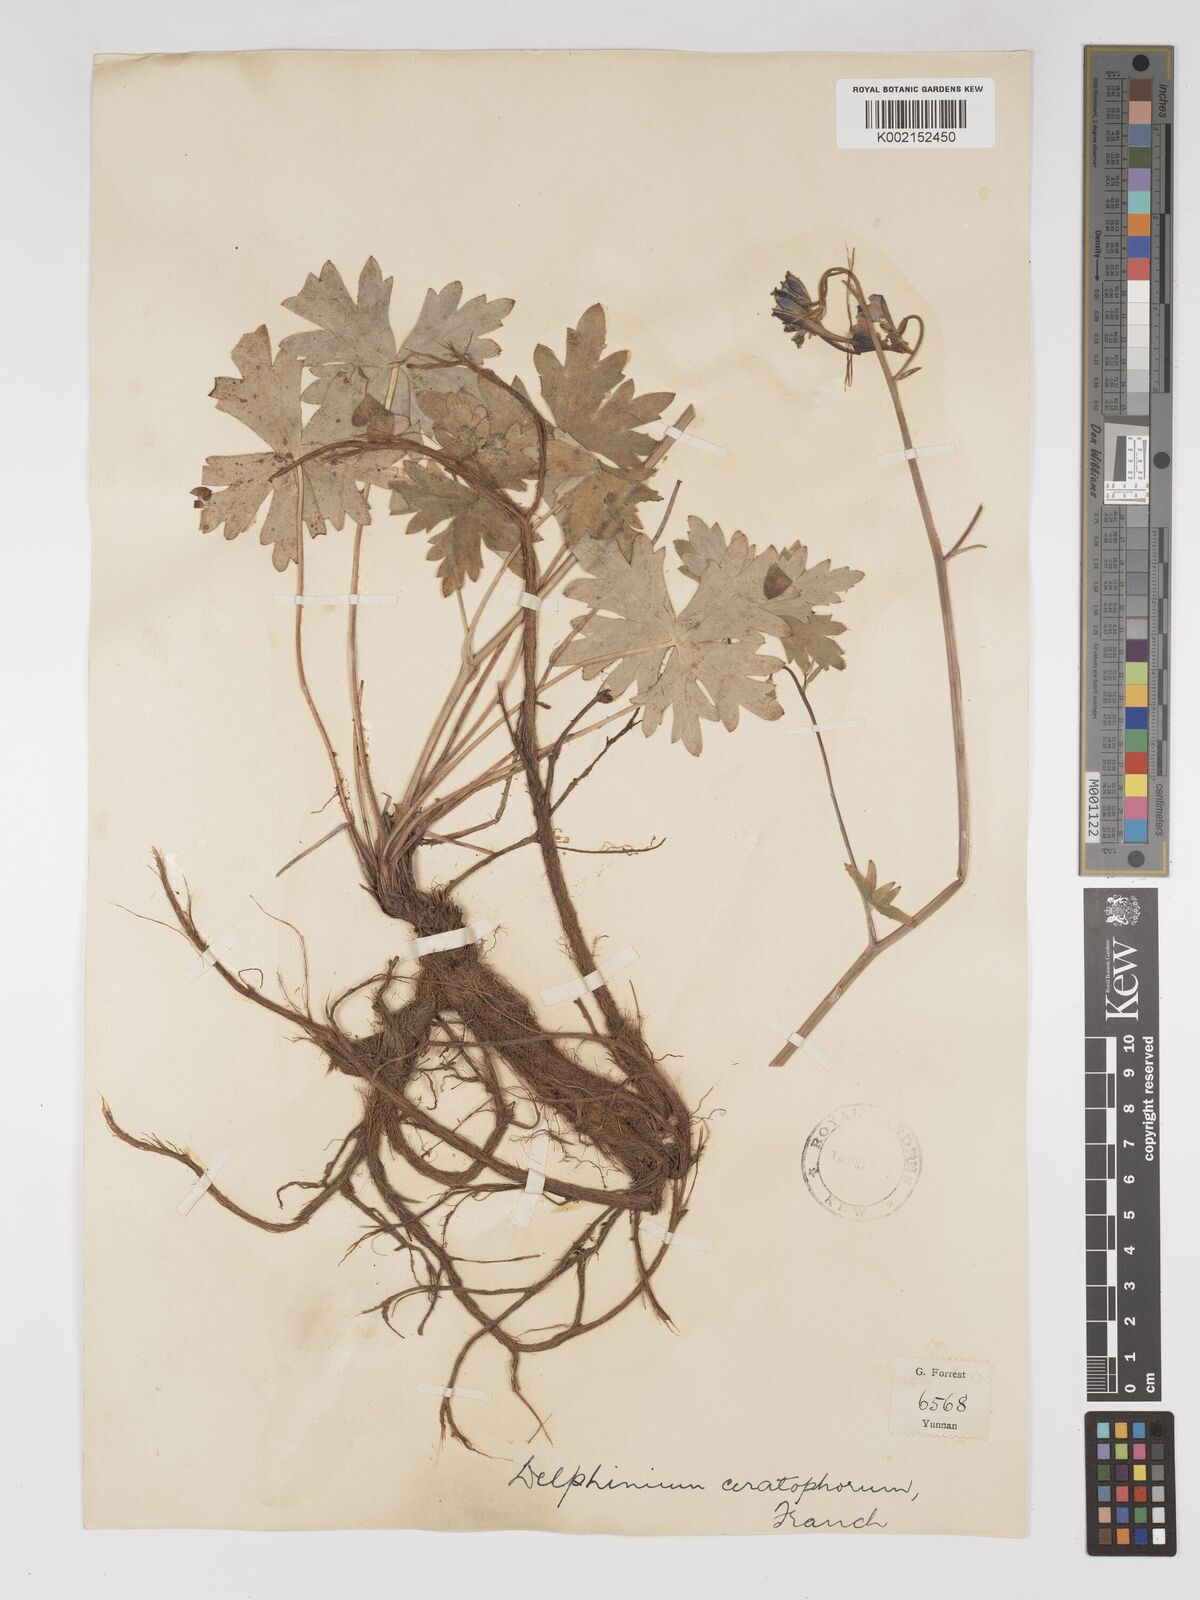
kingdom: Plantae
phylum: Tracheophyta
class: Magnoliopsida
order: Ranunculales
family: Ranunculaceae
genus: Delphinium
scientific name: Delphinium ceratophorum
